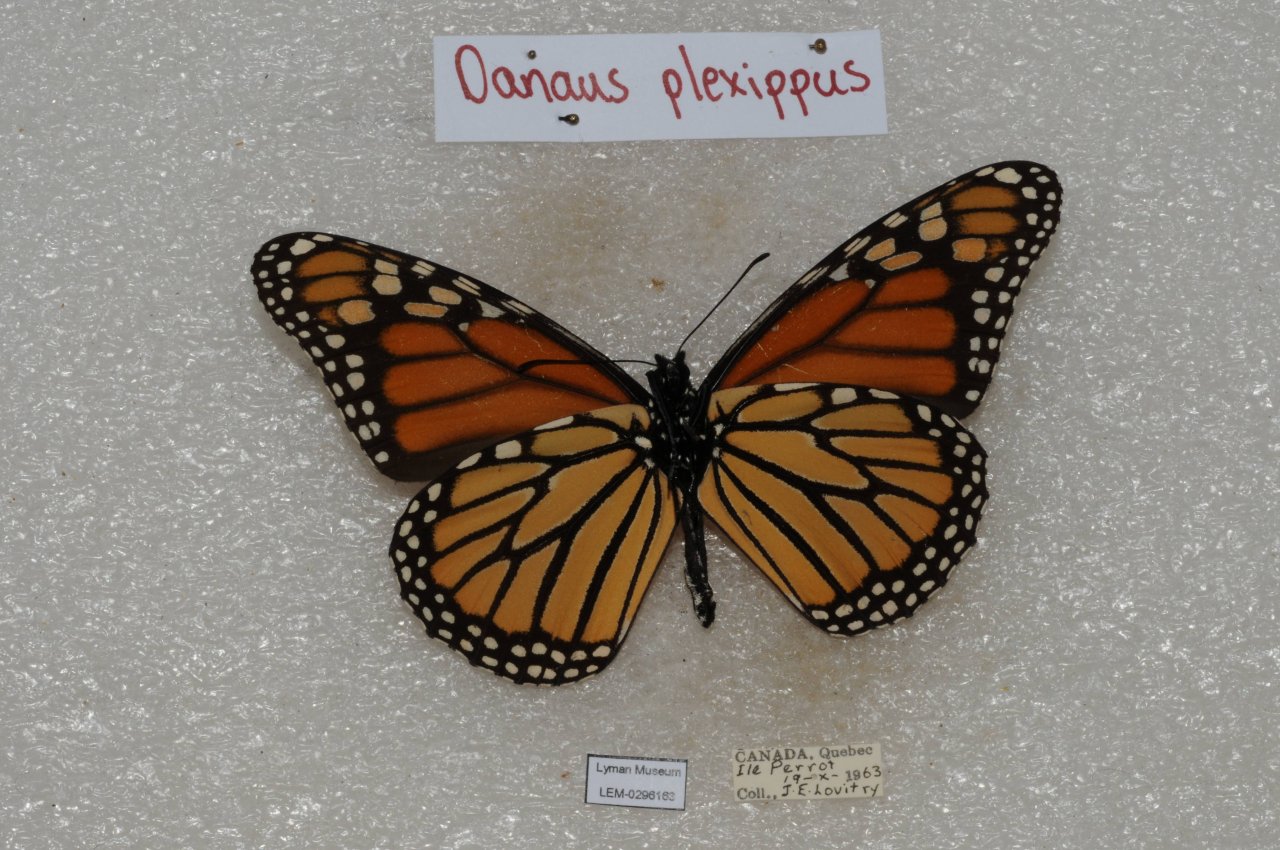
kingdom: Animalia
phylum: Arthropoda
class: Insecta
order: Lepidoptera
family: Nymphalidae
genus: Danaus
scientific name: Danaus plexippus
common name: Monarch
